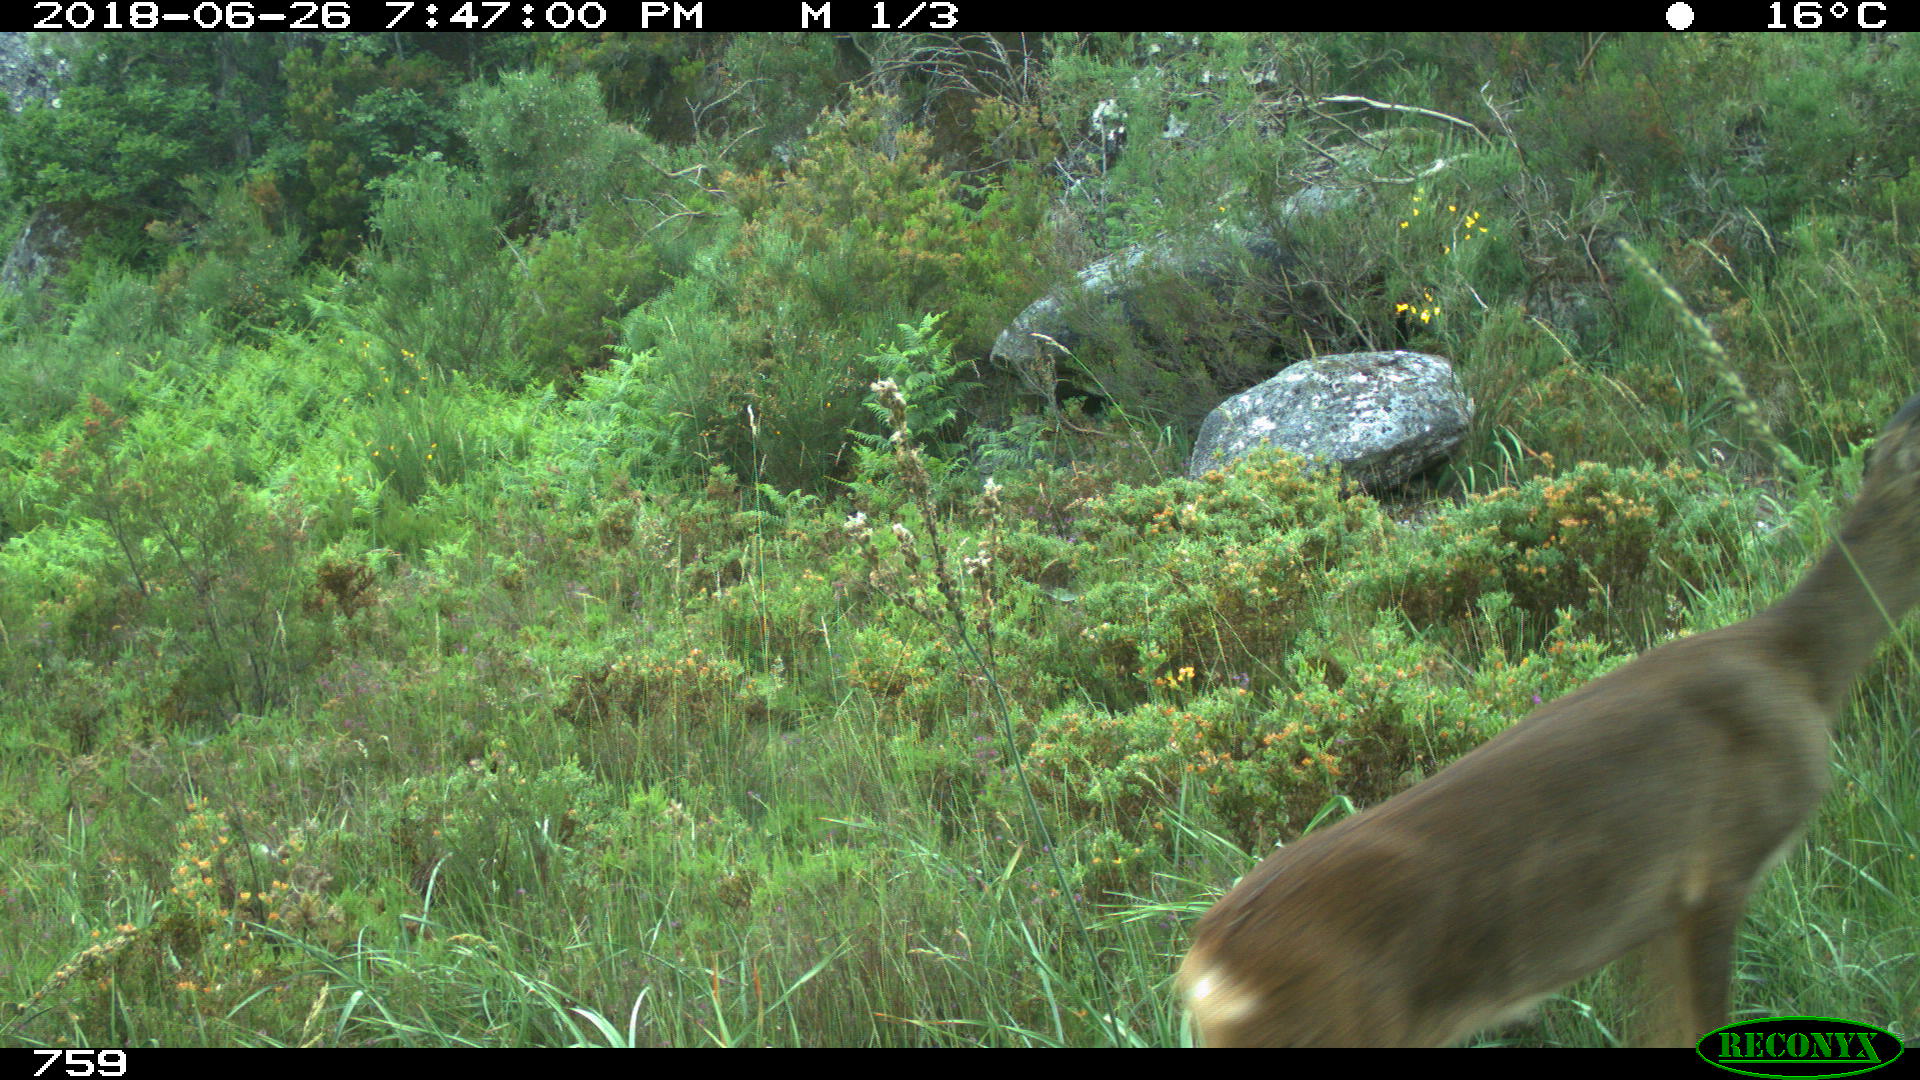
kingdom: Animalia
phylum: Chordata
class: Mammalia
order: Artiodactyla
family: Cervidae
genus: Capreolus
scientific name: Capreolus capreolus
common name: Western roe deer
